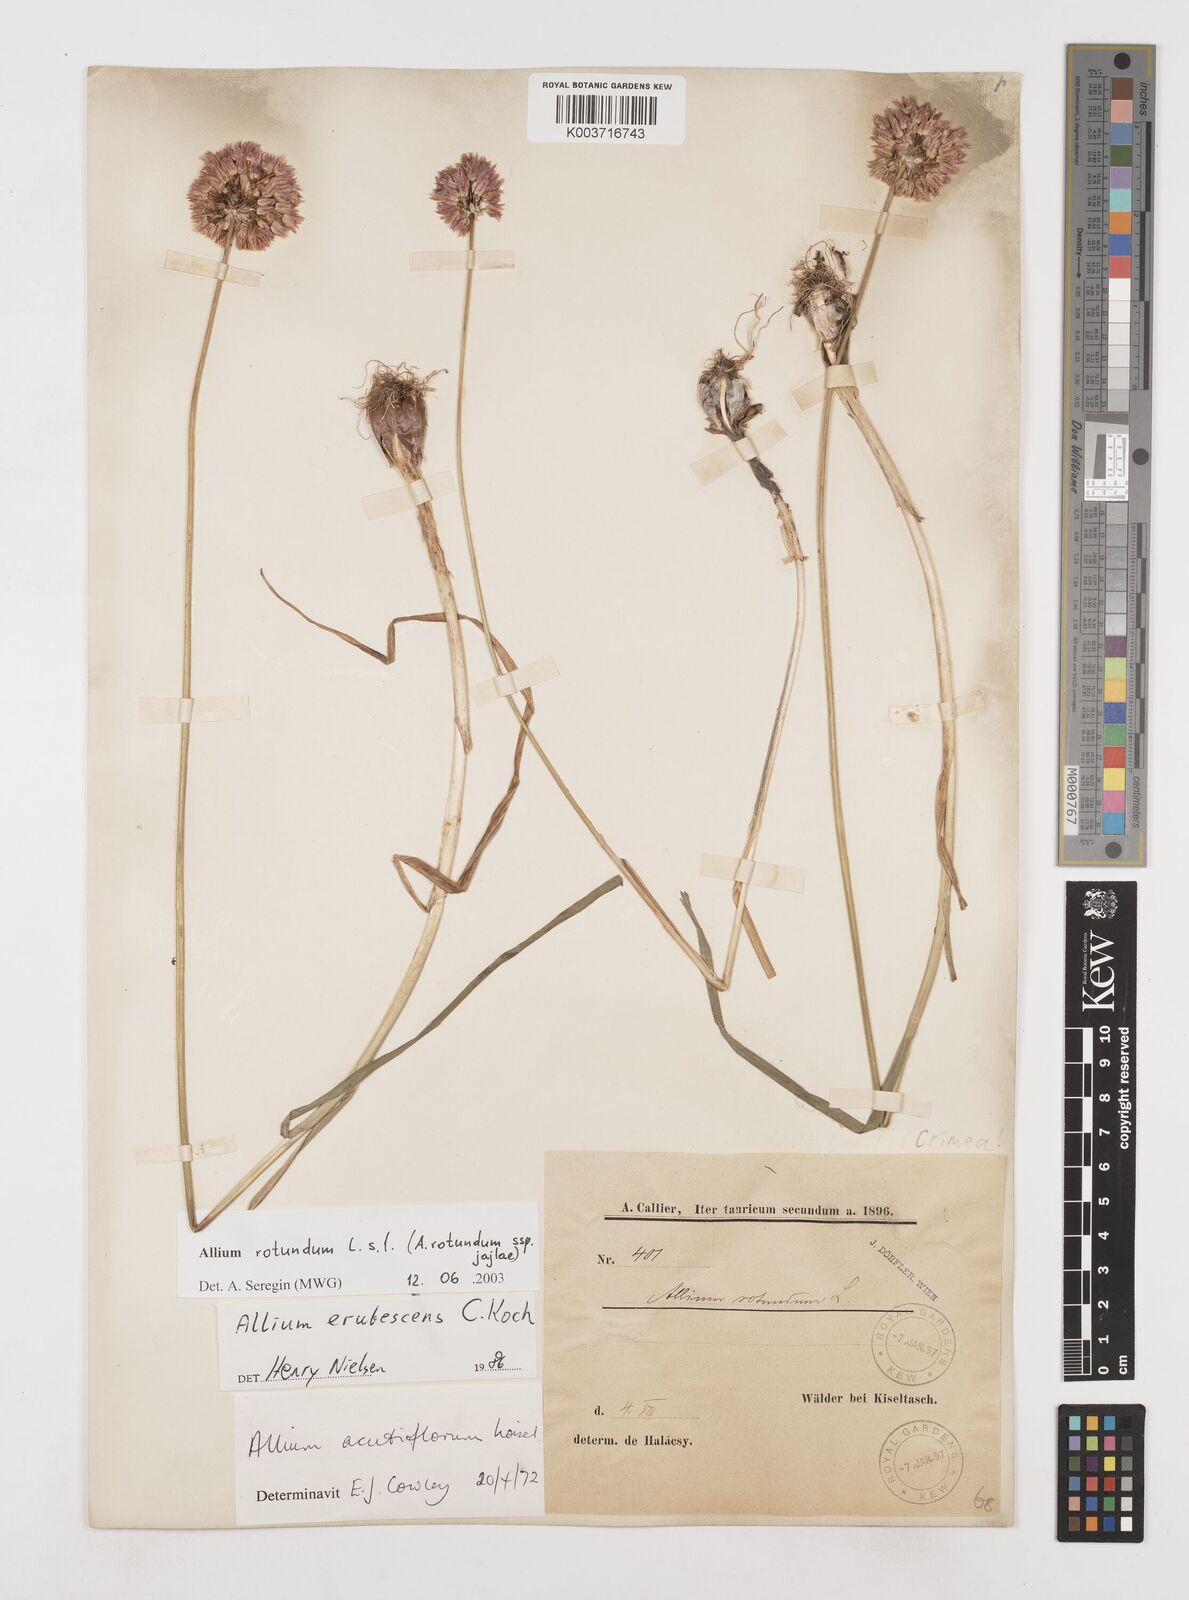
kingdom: Plantae
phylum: Tracheophyta
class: Liliopsida
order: Asparagales
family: Amaryllidaceae
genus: Allium
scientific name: Allium rotundum
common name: Sand leek
